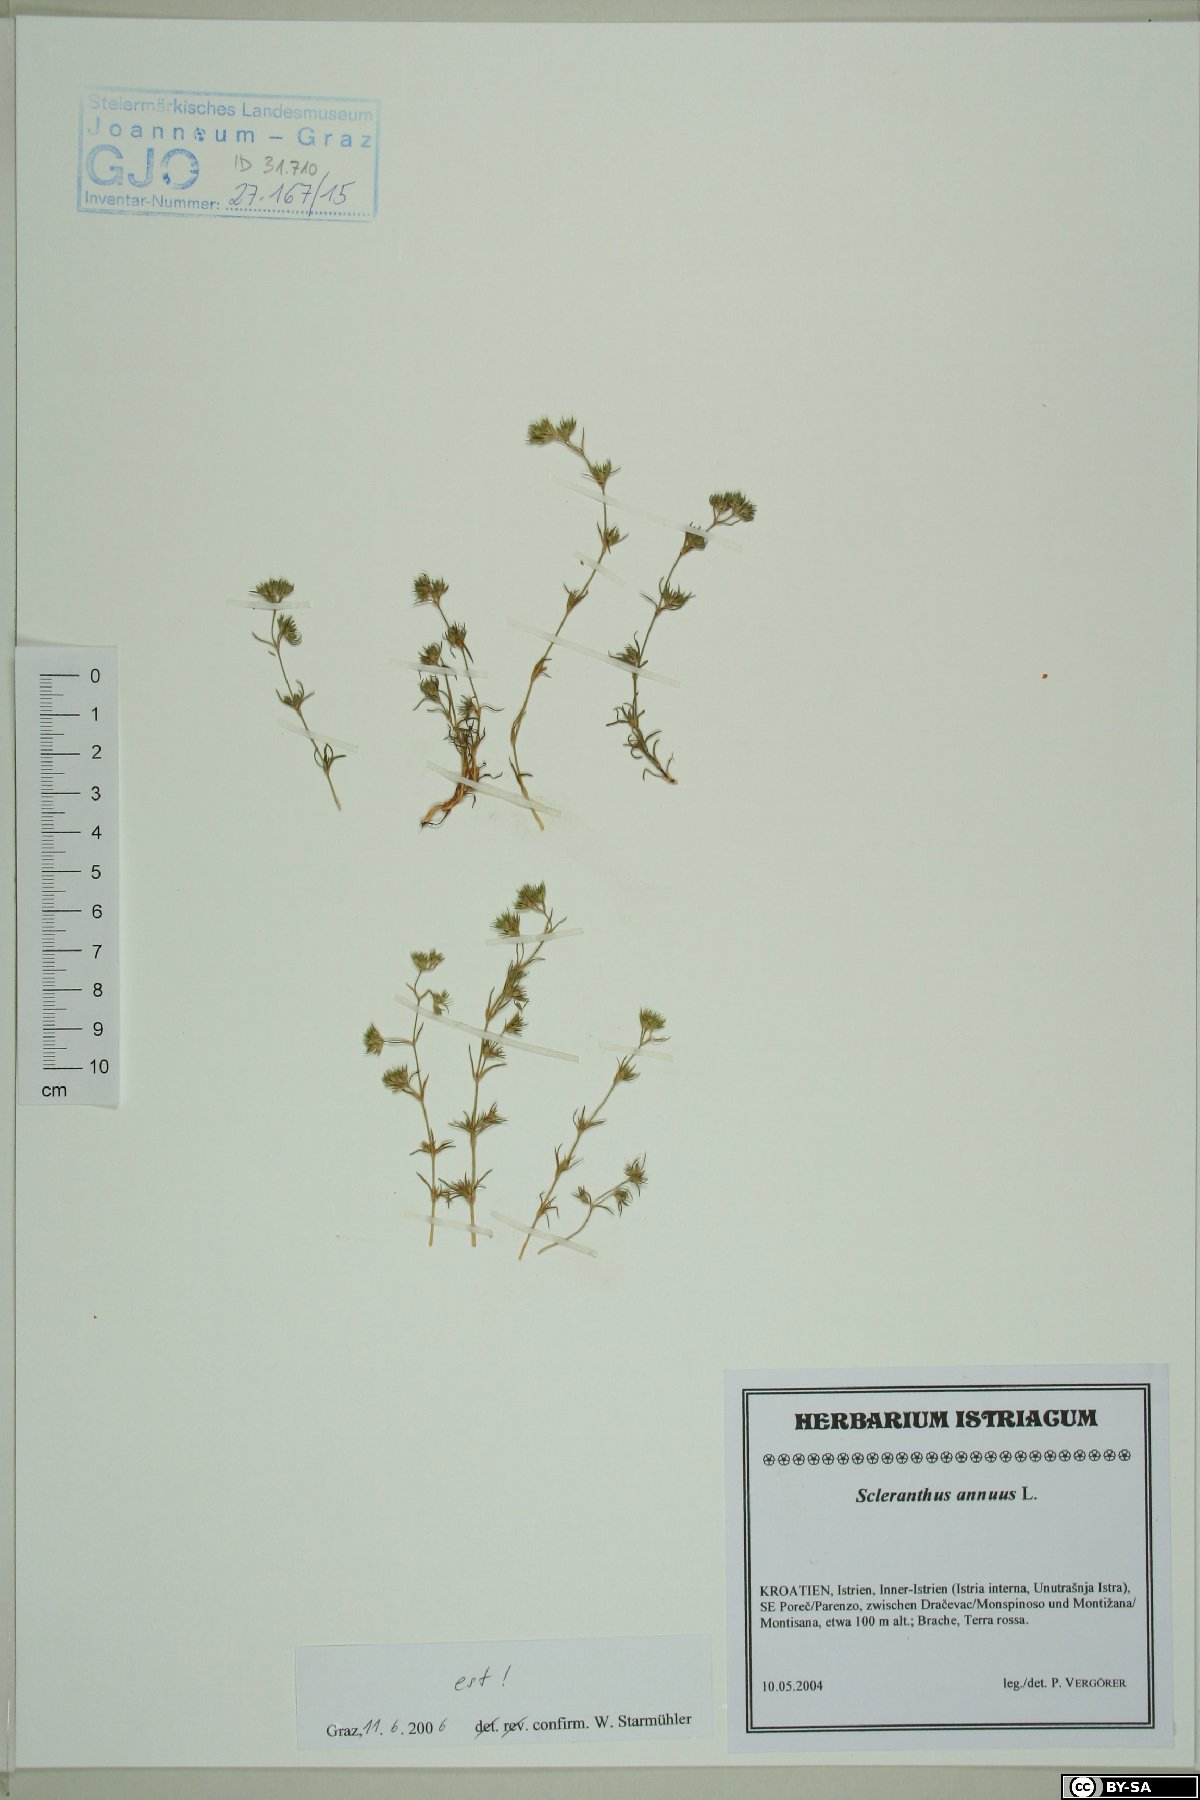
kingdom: Plantae
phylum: Tracheophyta
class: Magnoliopsida
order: Caryophyllales
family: Caryophyllaceae
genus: Scleranthus
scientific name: Scleranthus annuus
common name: Annual knawel
